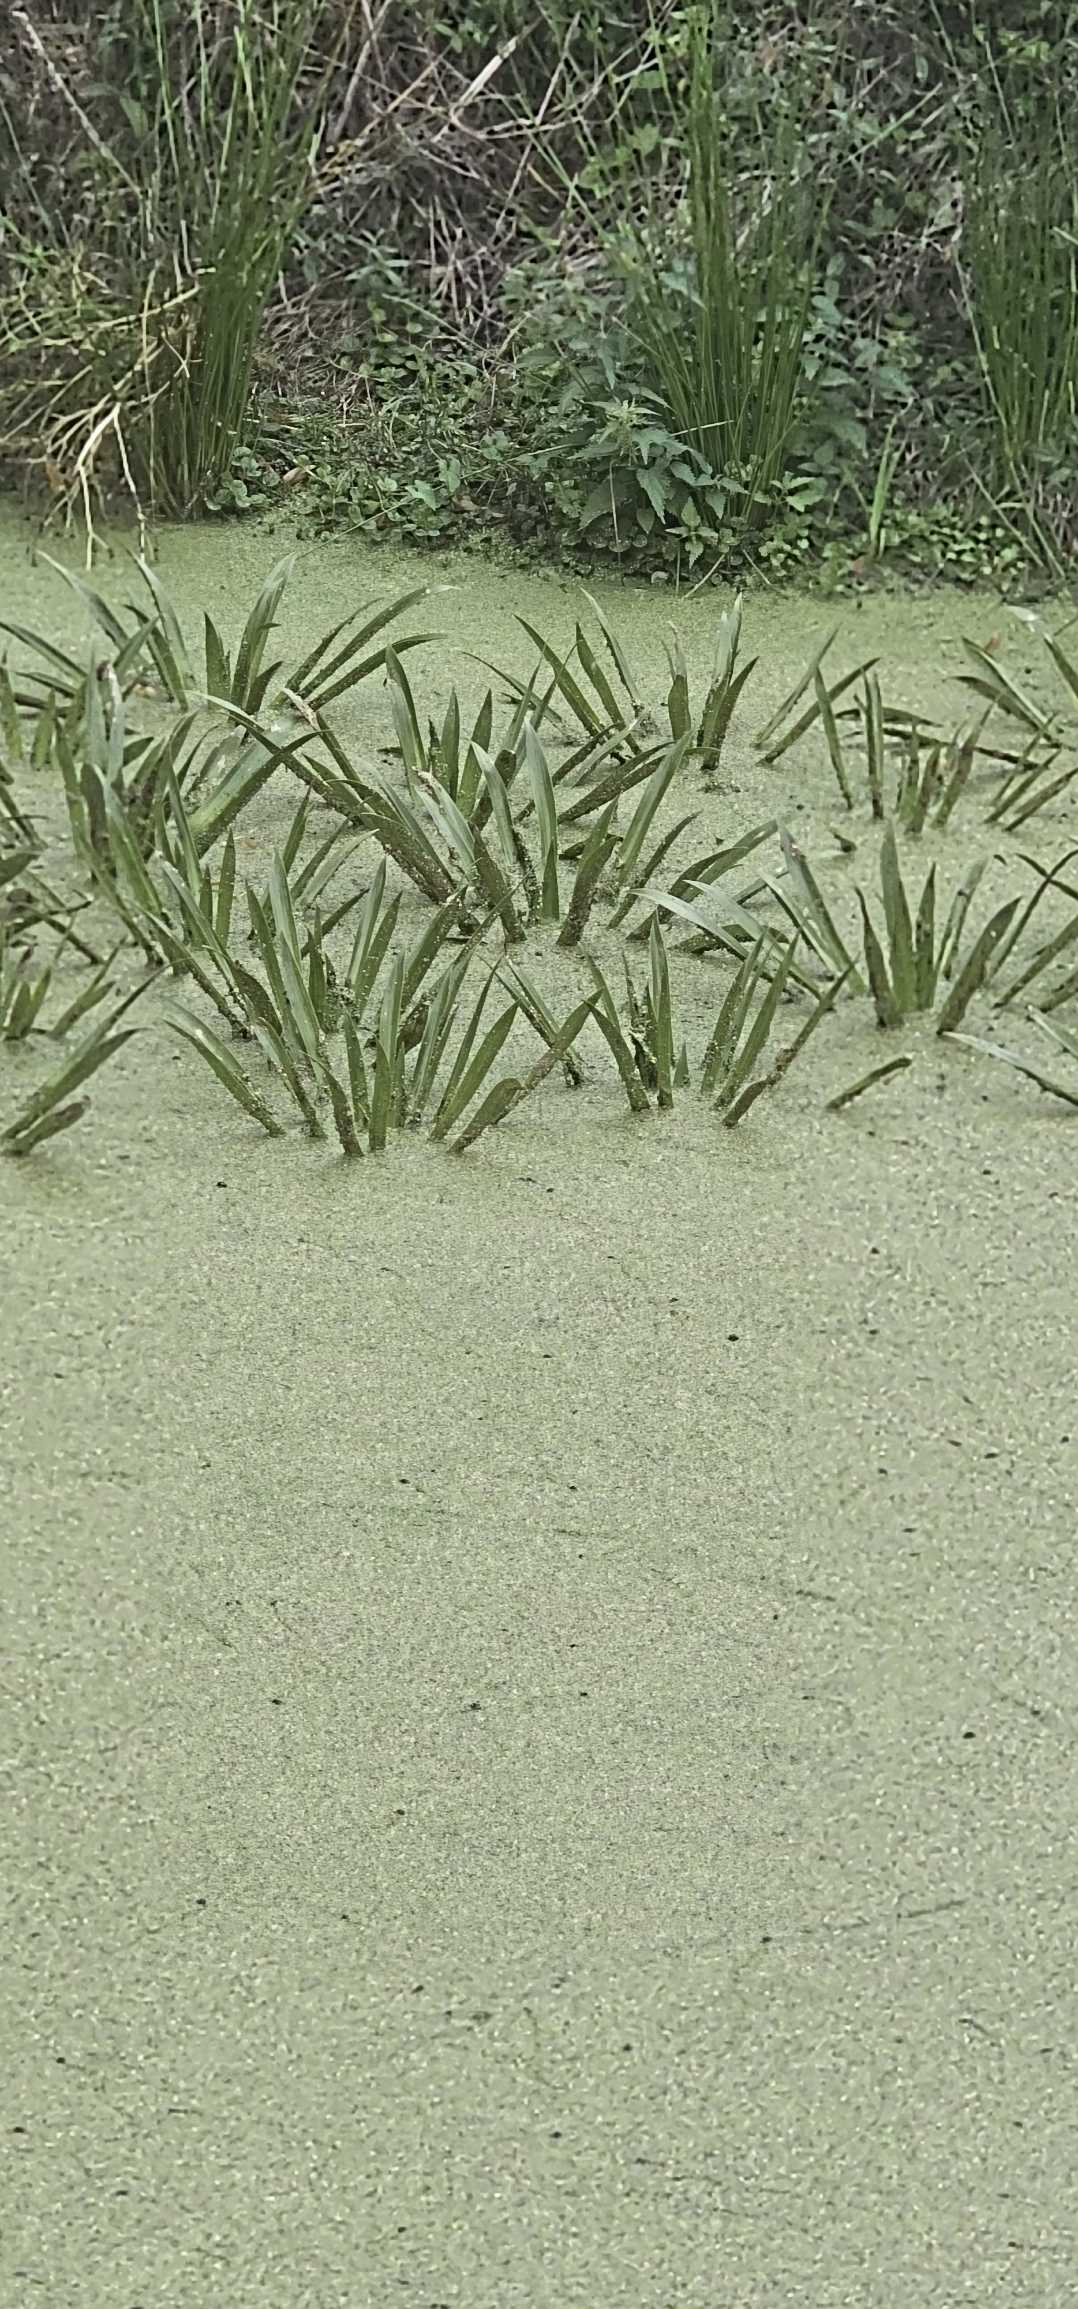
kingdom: Plantae
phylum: Tracheophyta
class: Liliopsida
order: Alismatales
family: Hydrocharitaceae
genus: Stratiotes
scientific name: Stratiotes aloides
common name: Krebseklo
